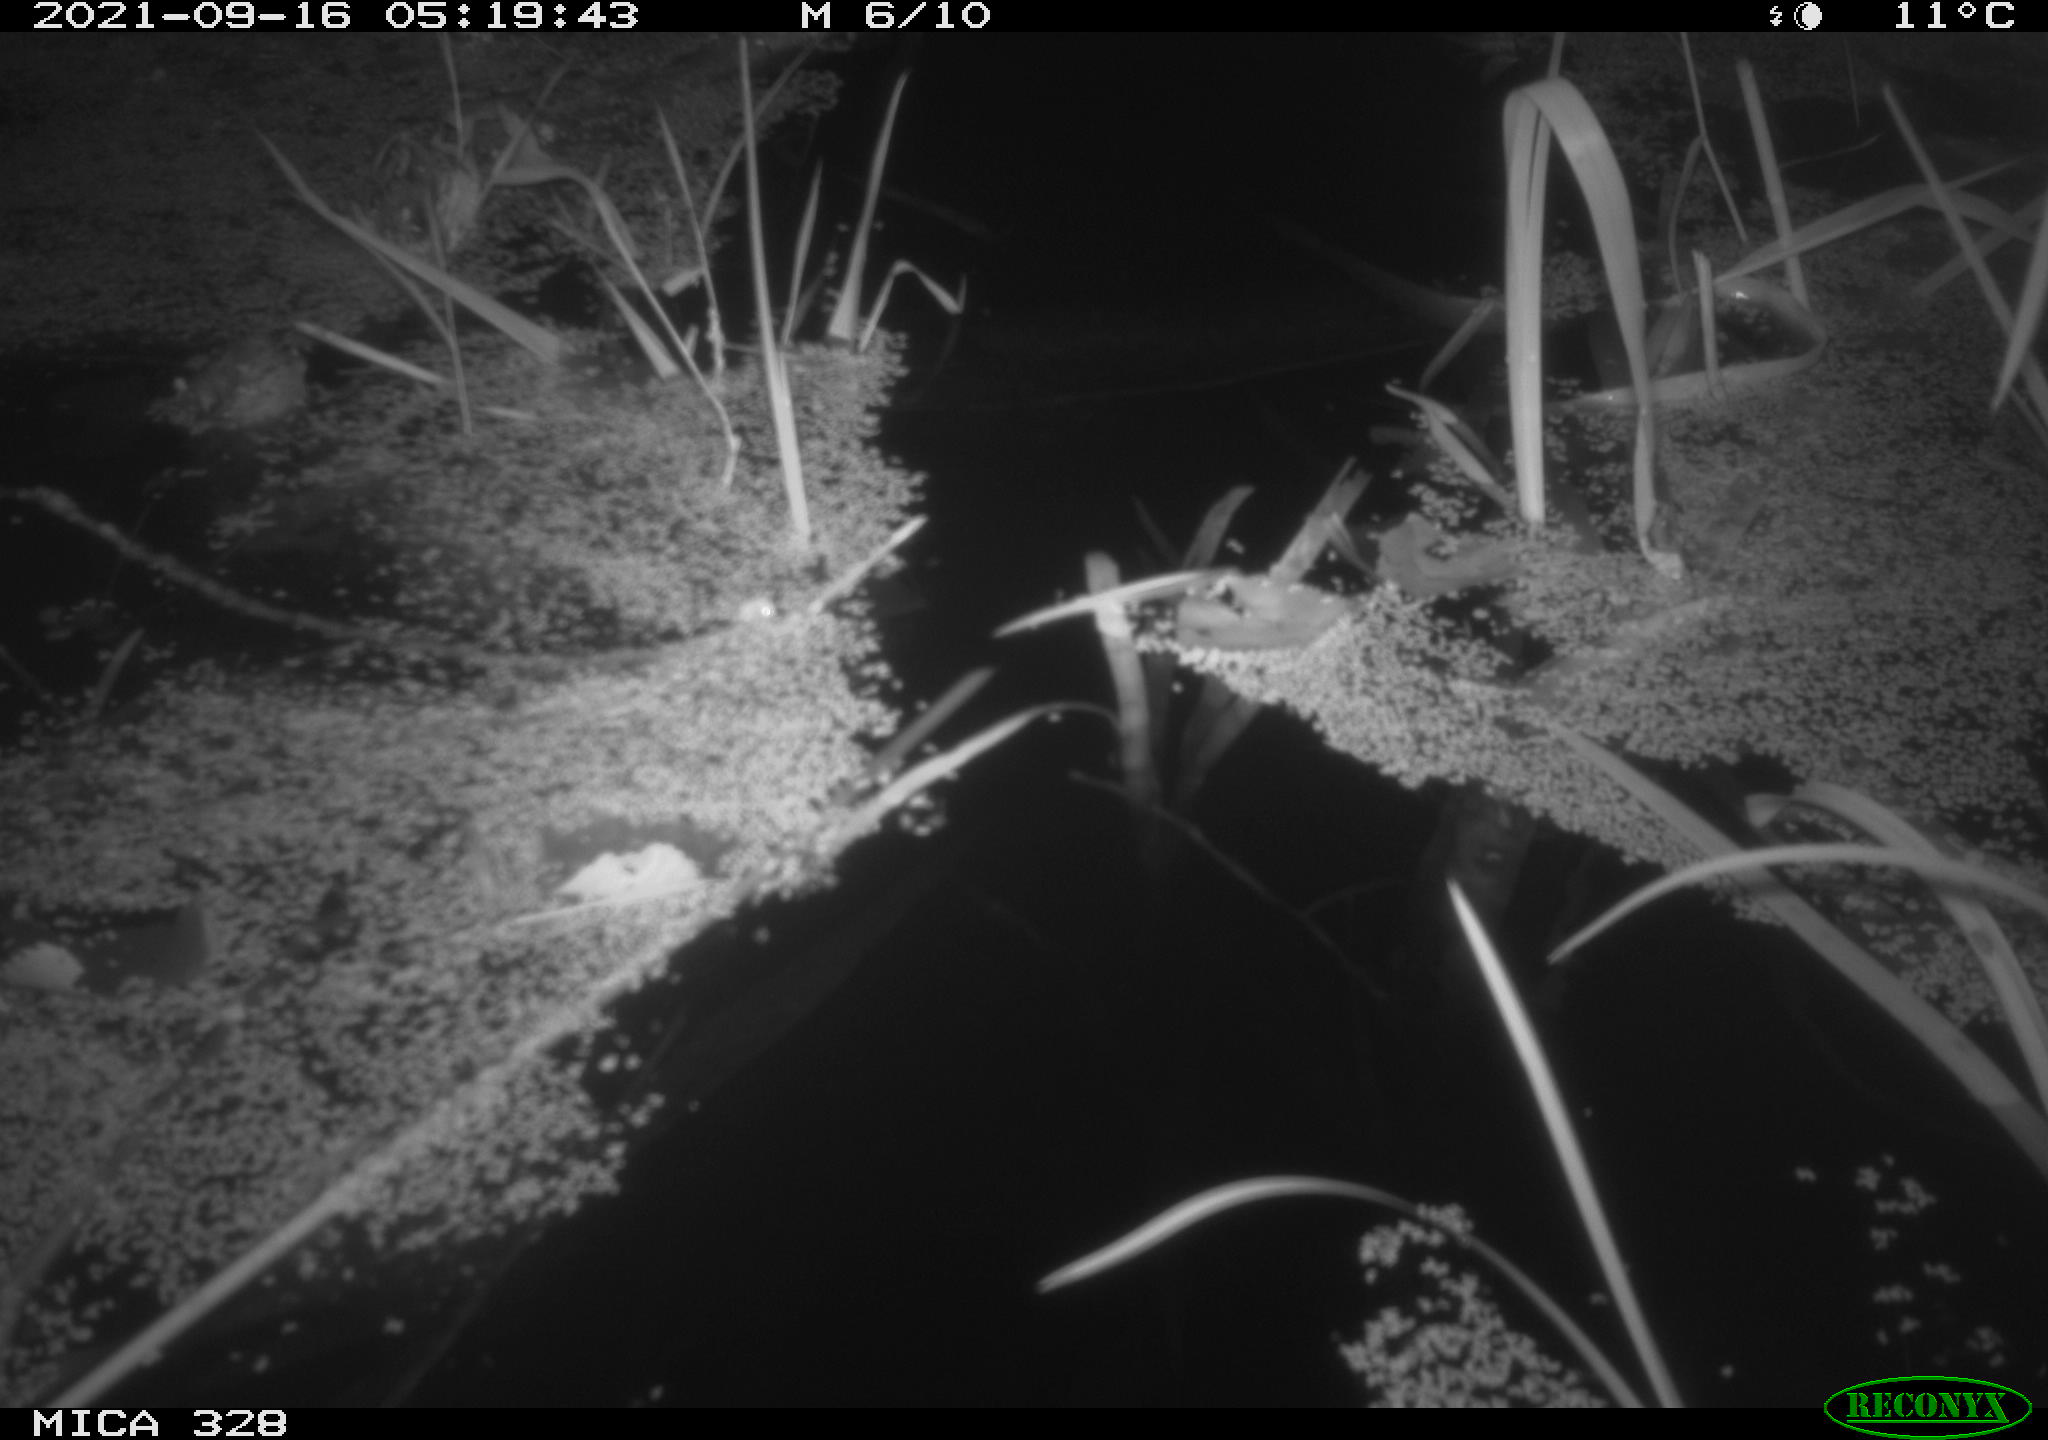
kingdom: Animalia
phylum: Chordata
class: Mammalia
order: Rodentia
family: Cricetidae
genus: Ondatra
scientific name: Ondatra zibethicus
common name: Muskrat
